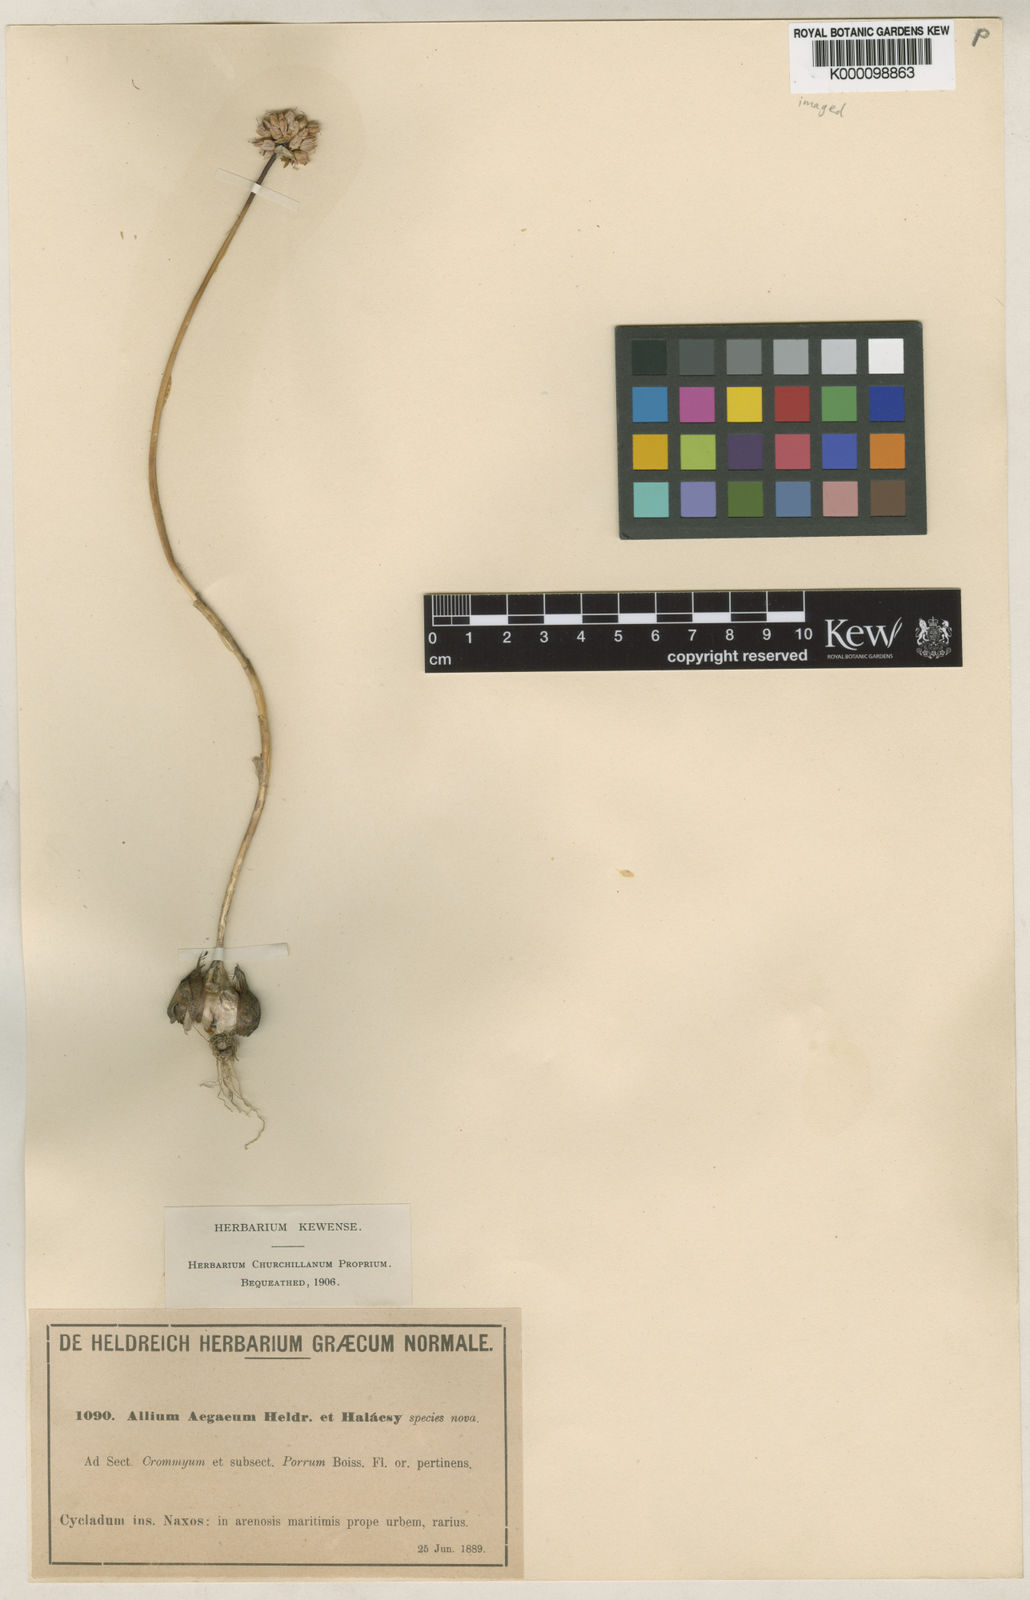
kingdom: Plantae
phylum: Tracheophyta
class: Liliopsida
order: Asparagales
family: Amaryllidaceae
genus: Allium
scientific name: Allium sphaerocephalon
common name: Round-headed leek
